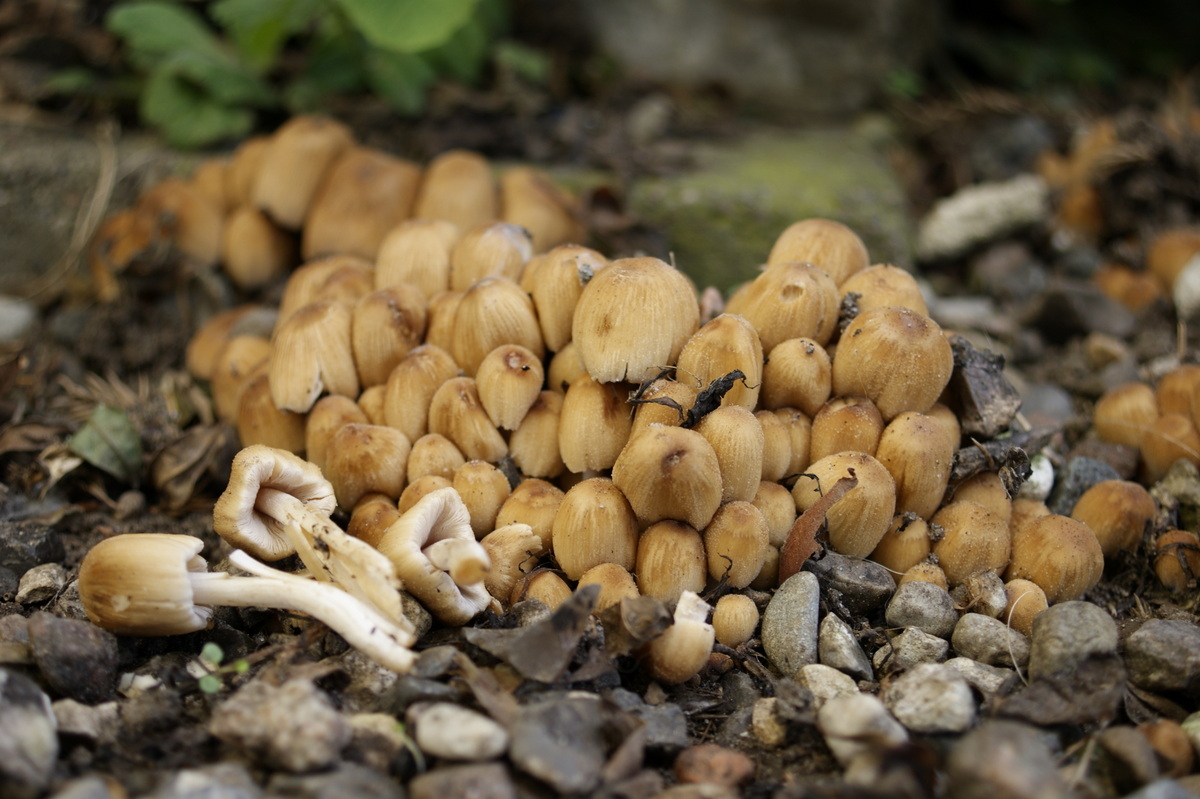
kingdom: Fungi
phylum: Basidiomycota
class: Agaricomycetes
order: Agaricales
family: Psathyrellaceae
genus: Coprinellus
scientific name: Coprinellus micaceus
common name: glimmer-blækhat
